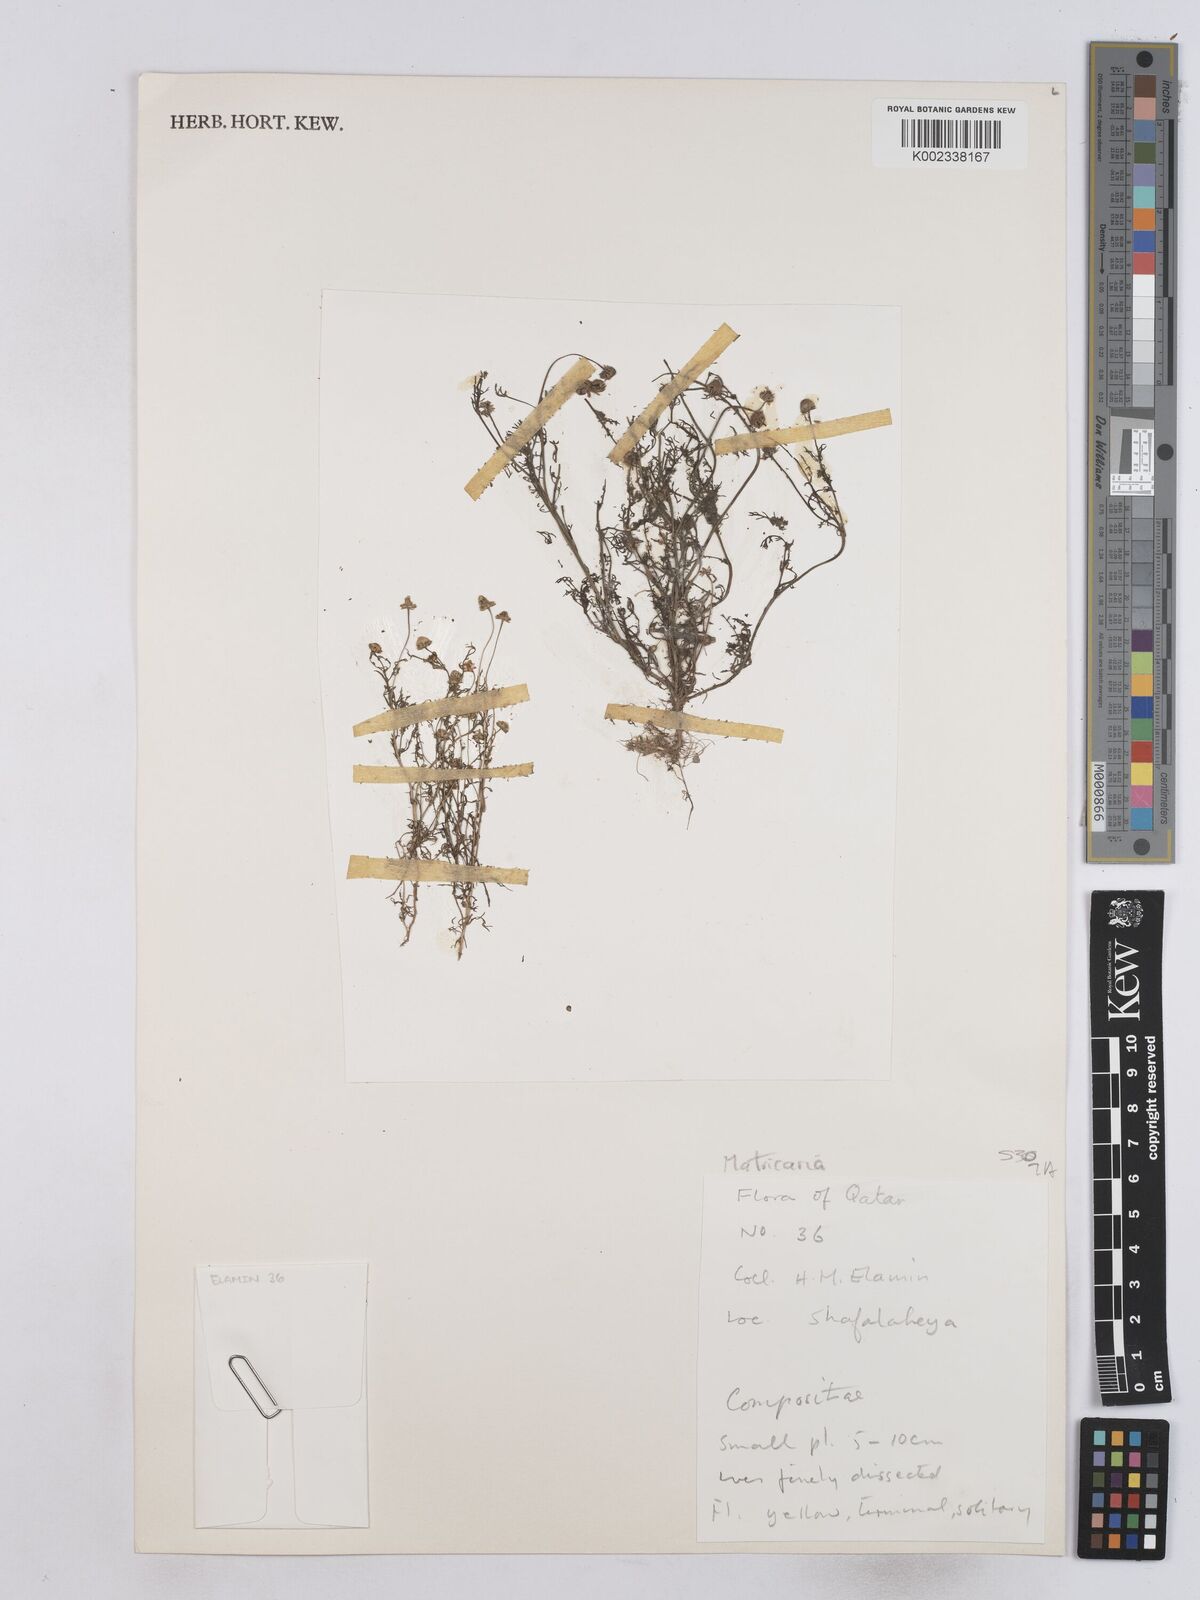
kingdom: Plantae
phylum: Tracheophyta
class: Magnoliopsida
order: Asterales
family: Asteraceae
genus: Matricaria
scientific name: Matricaria
